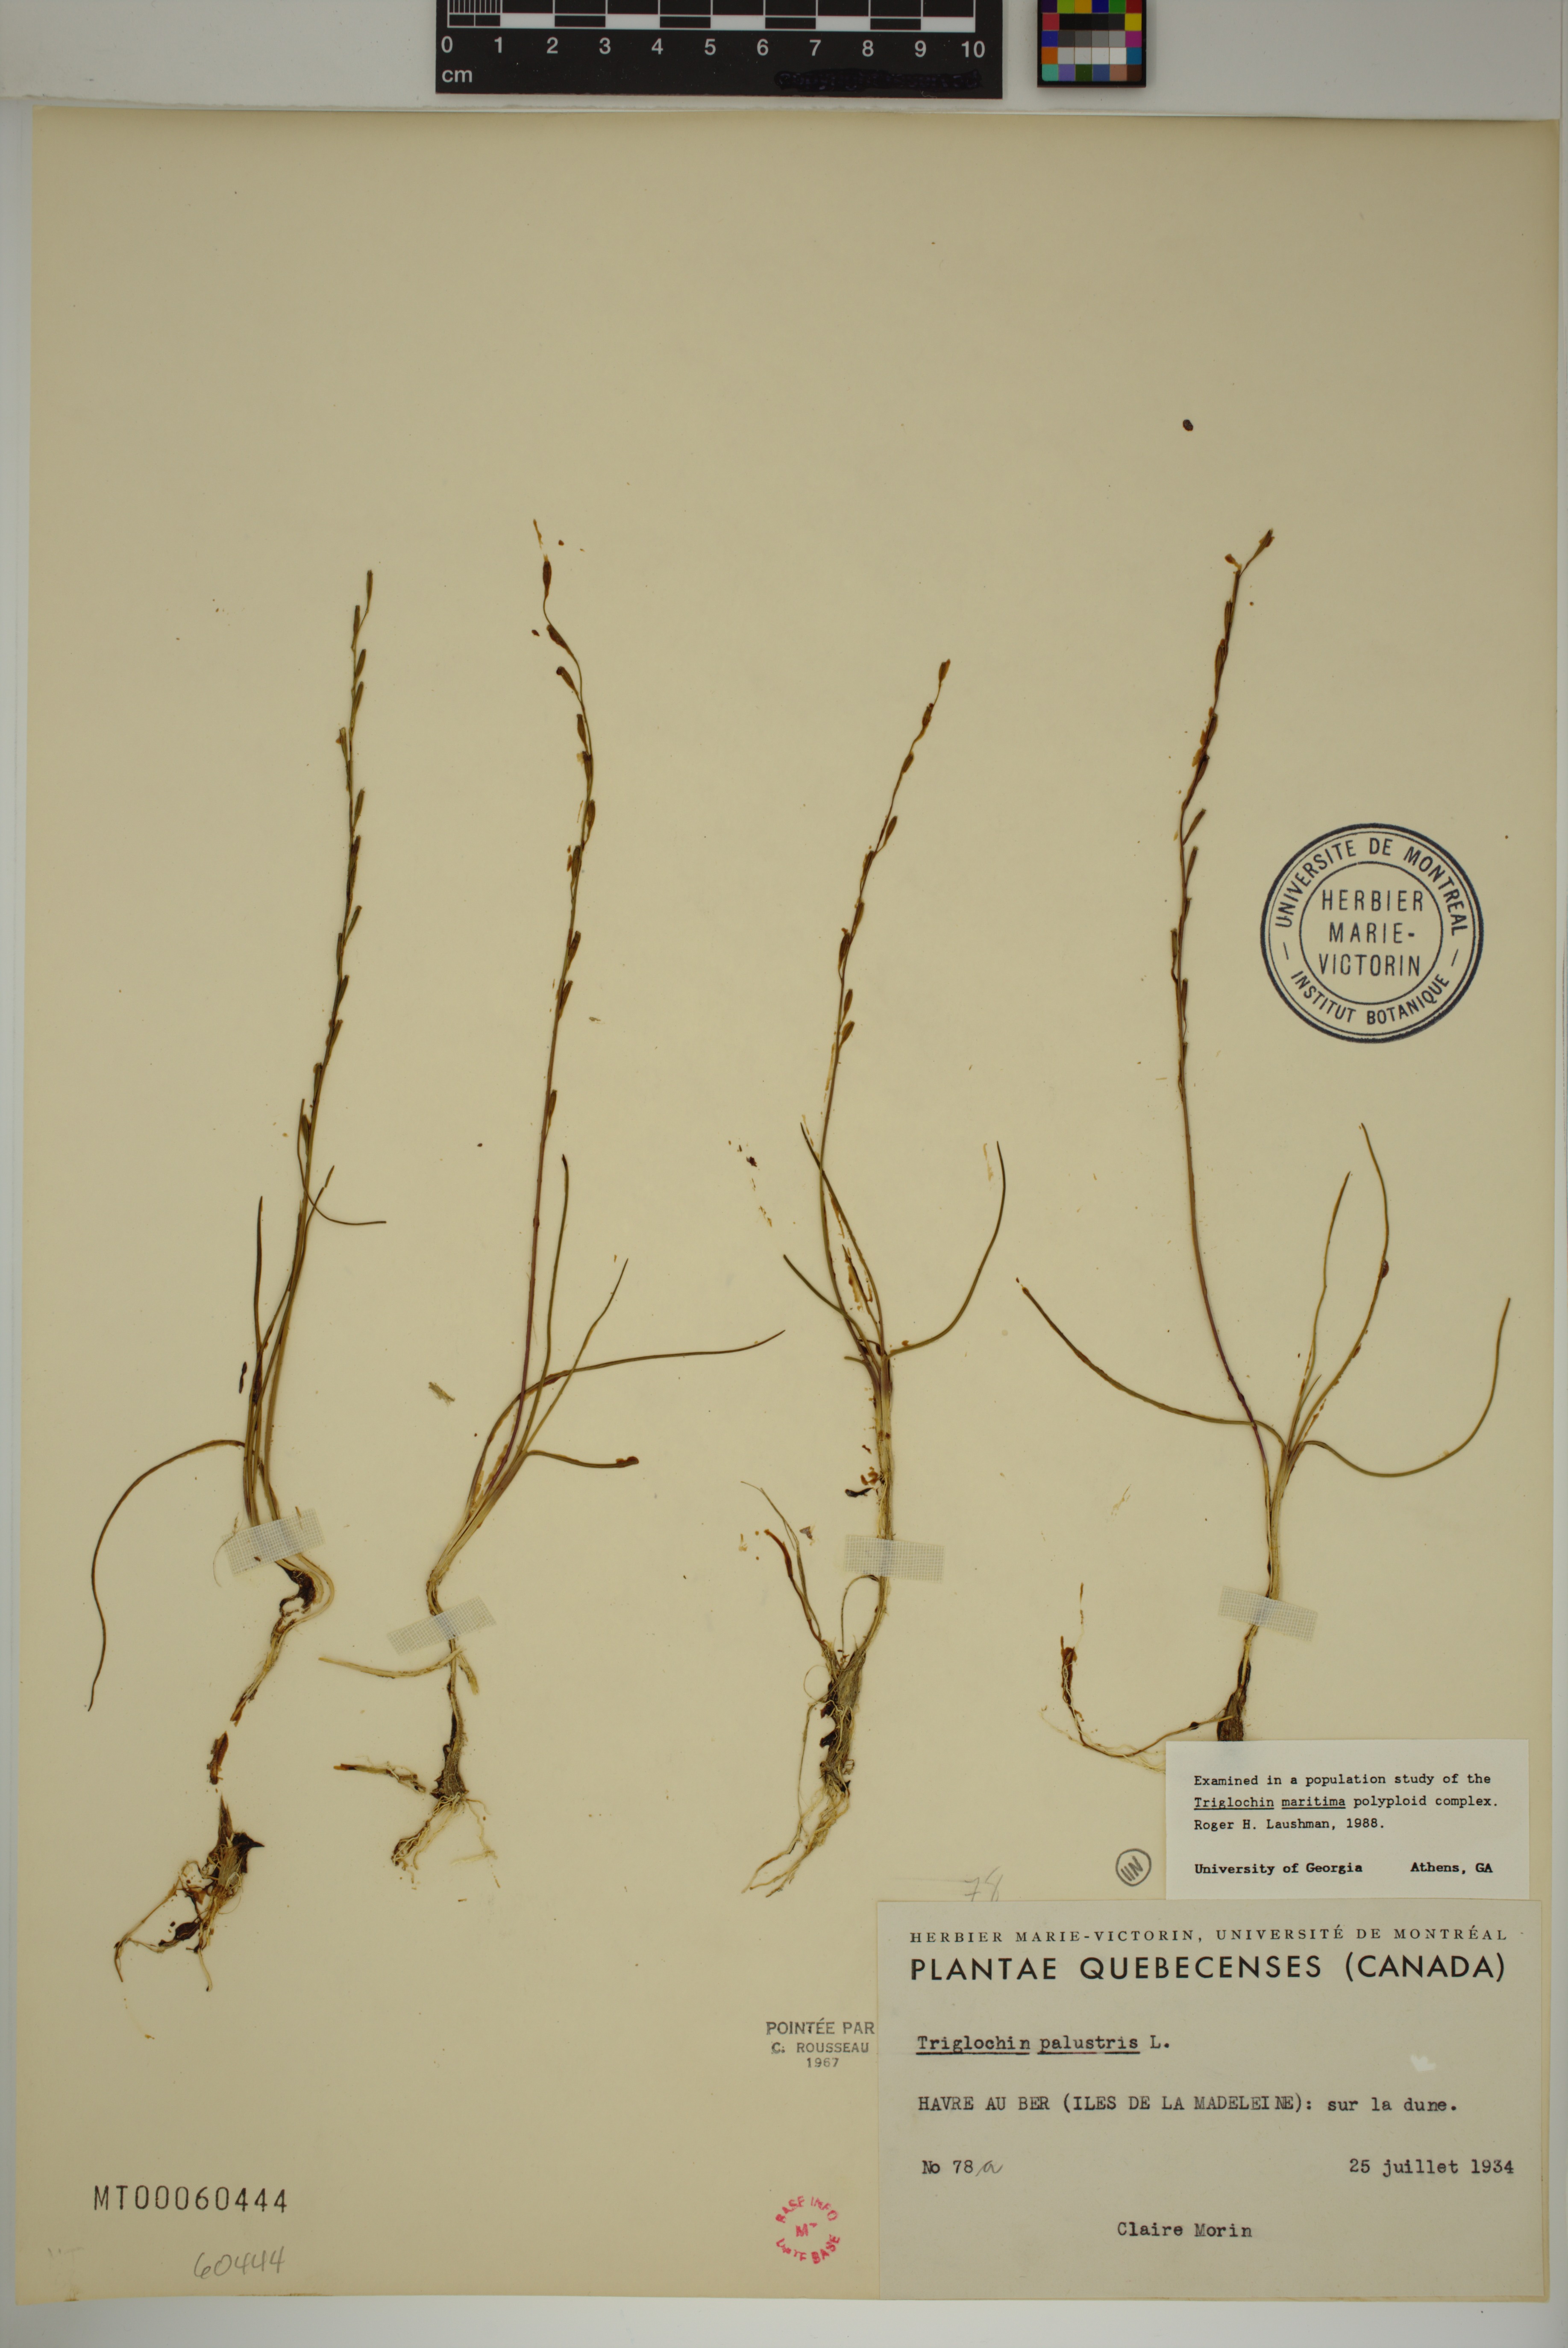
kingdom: Plantae
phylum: Tracheophyta
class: Liliopsida
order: Alismatales
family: Juncaginaceae
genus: Triglochin
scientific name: Triglochin palustris
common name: Marsh arrowgrass
